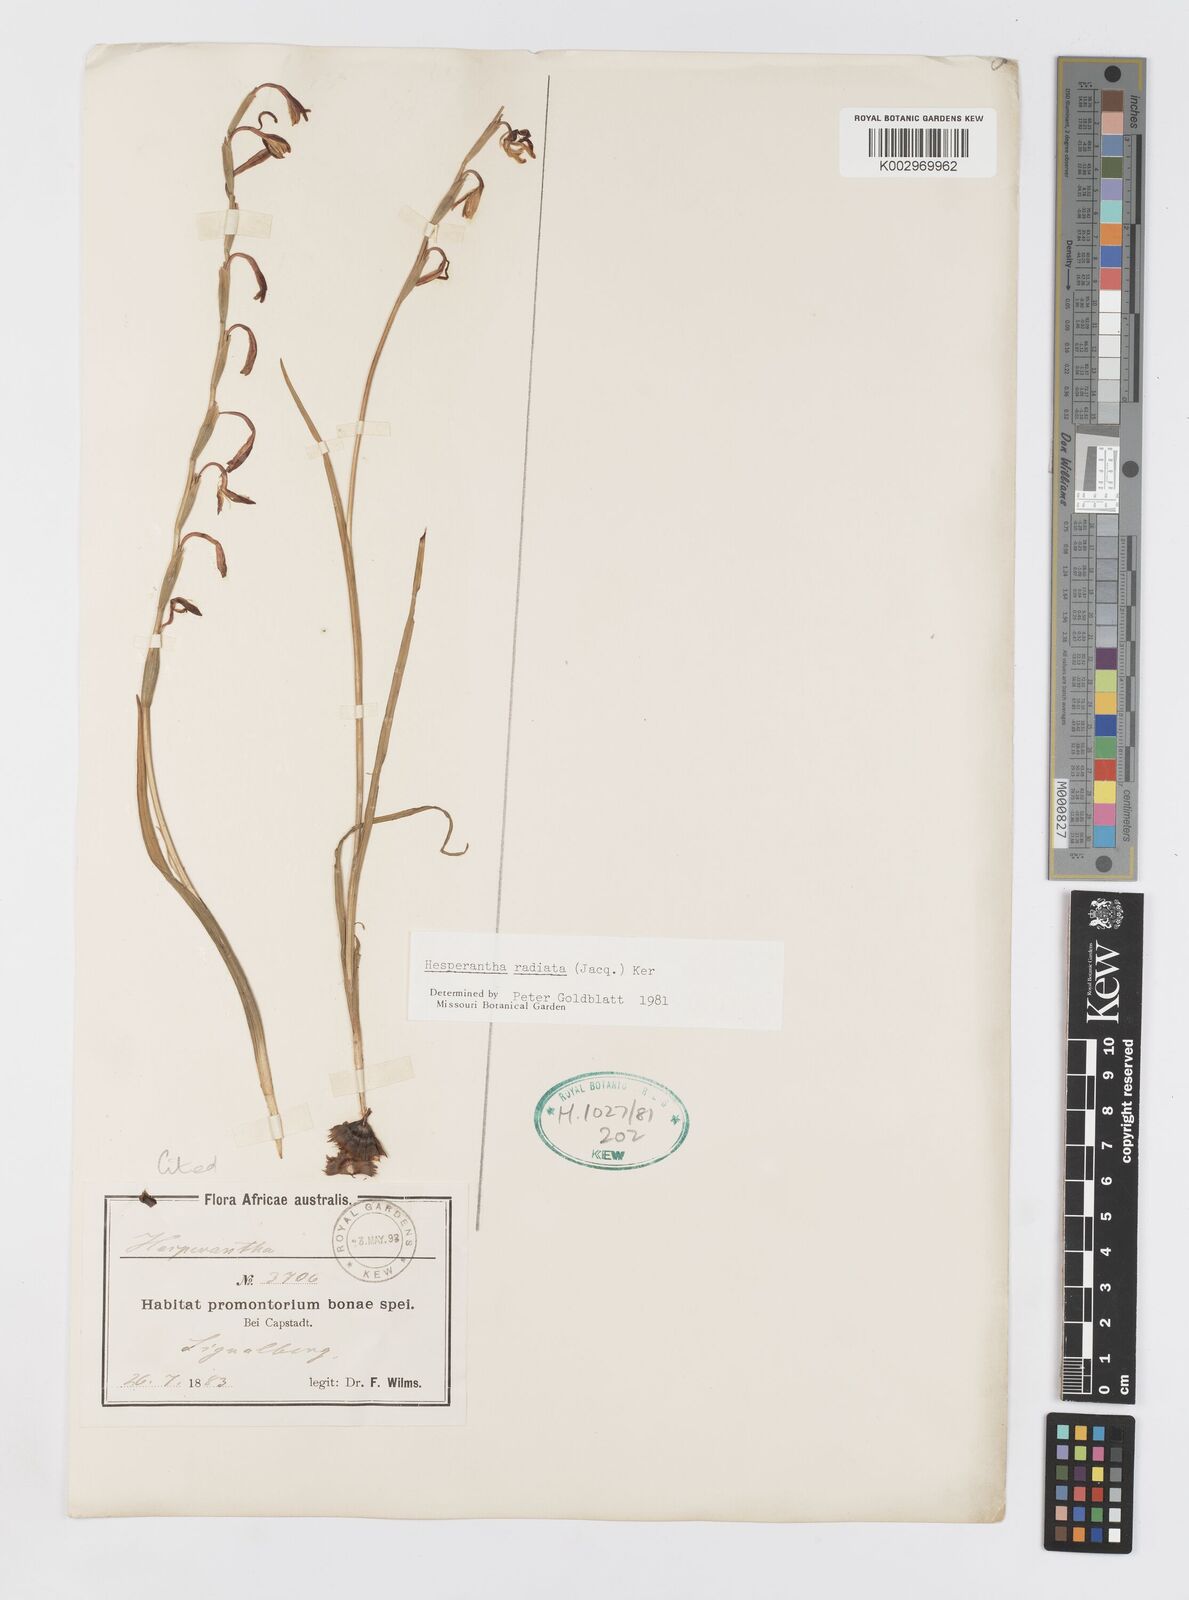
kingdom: Plantae
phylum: Tracheophyta
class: Liliopsida
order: Asparagales
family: Iridaceae
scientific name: Iridaceae
